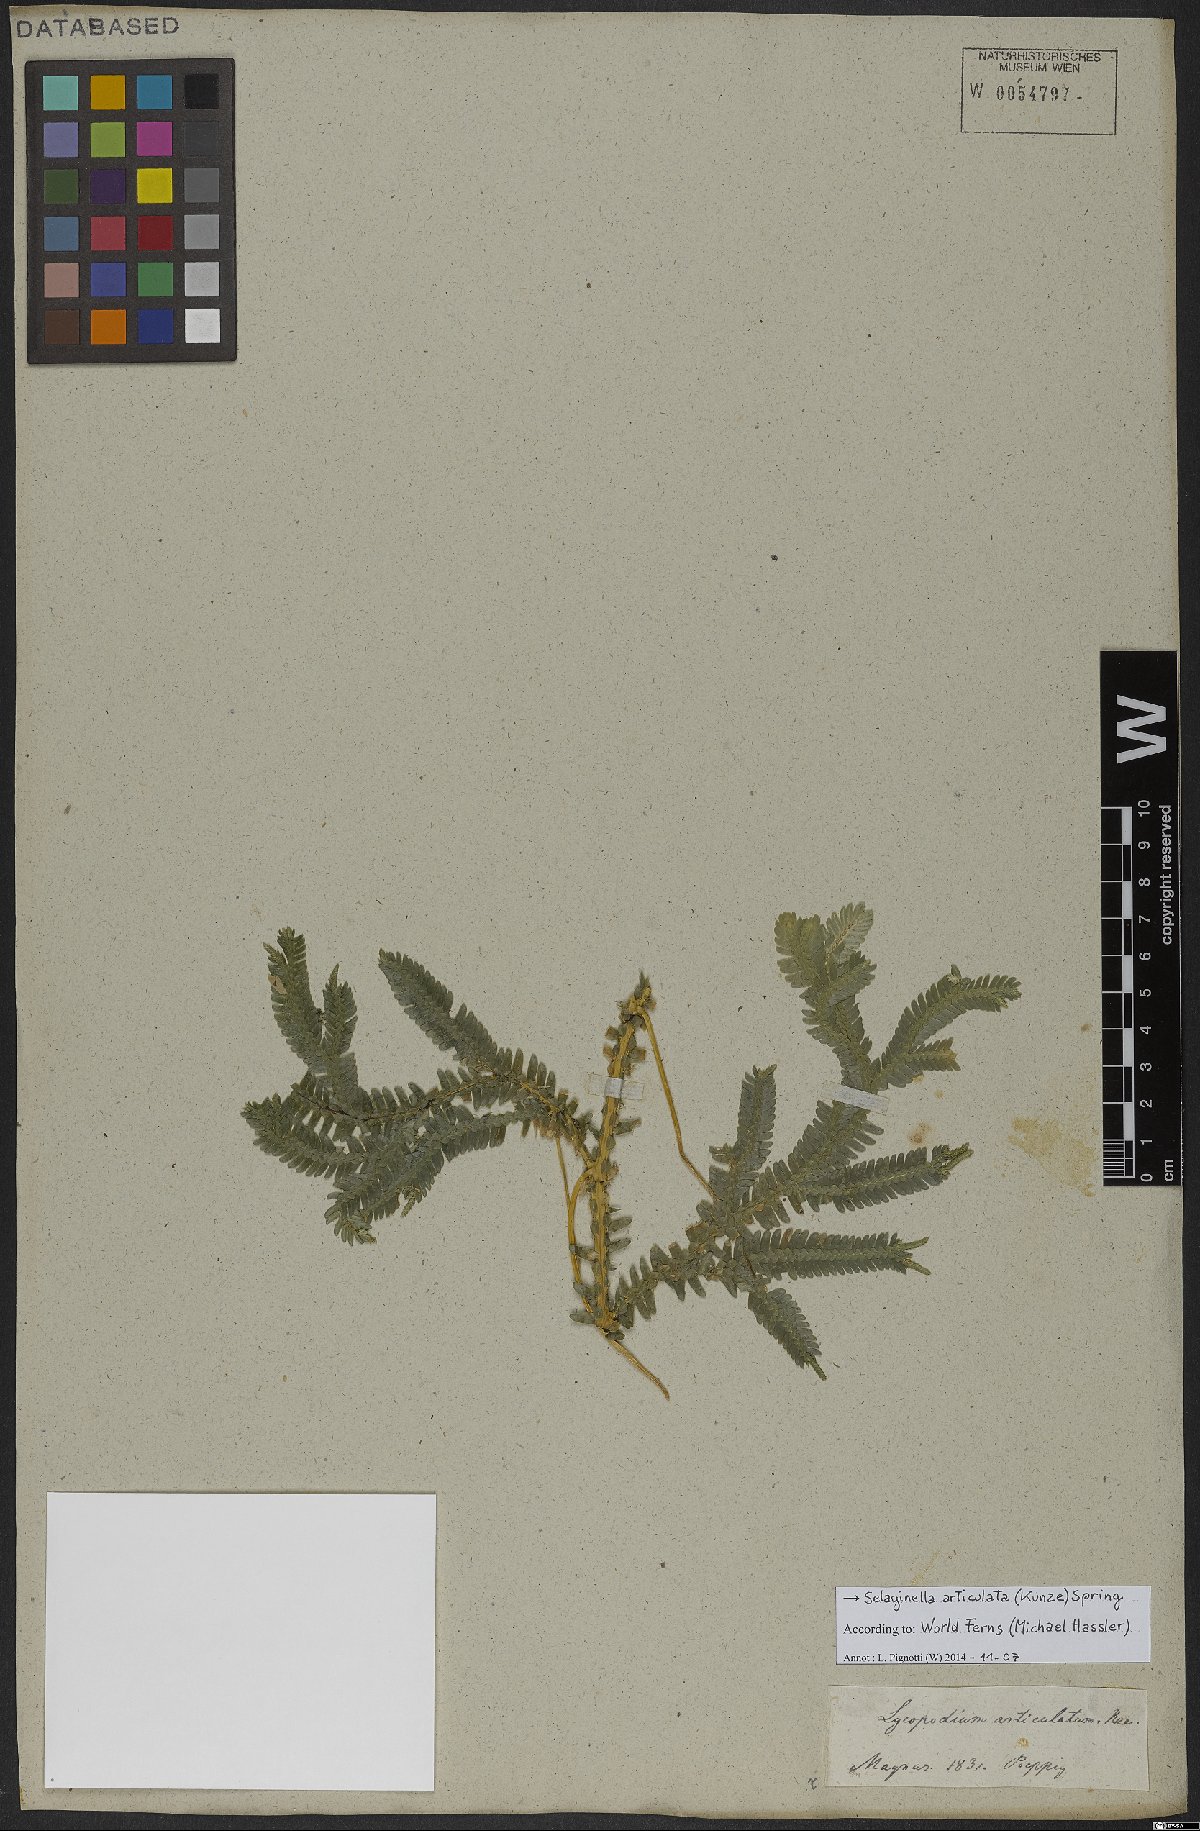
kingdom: Plantae
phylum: Tracheophyta
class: Lycopodiopsida
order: Selaginellales
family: Selaginellaceae
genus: Selaginella
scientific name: Selaginella articulata
